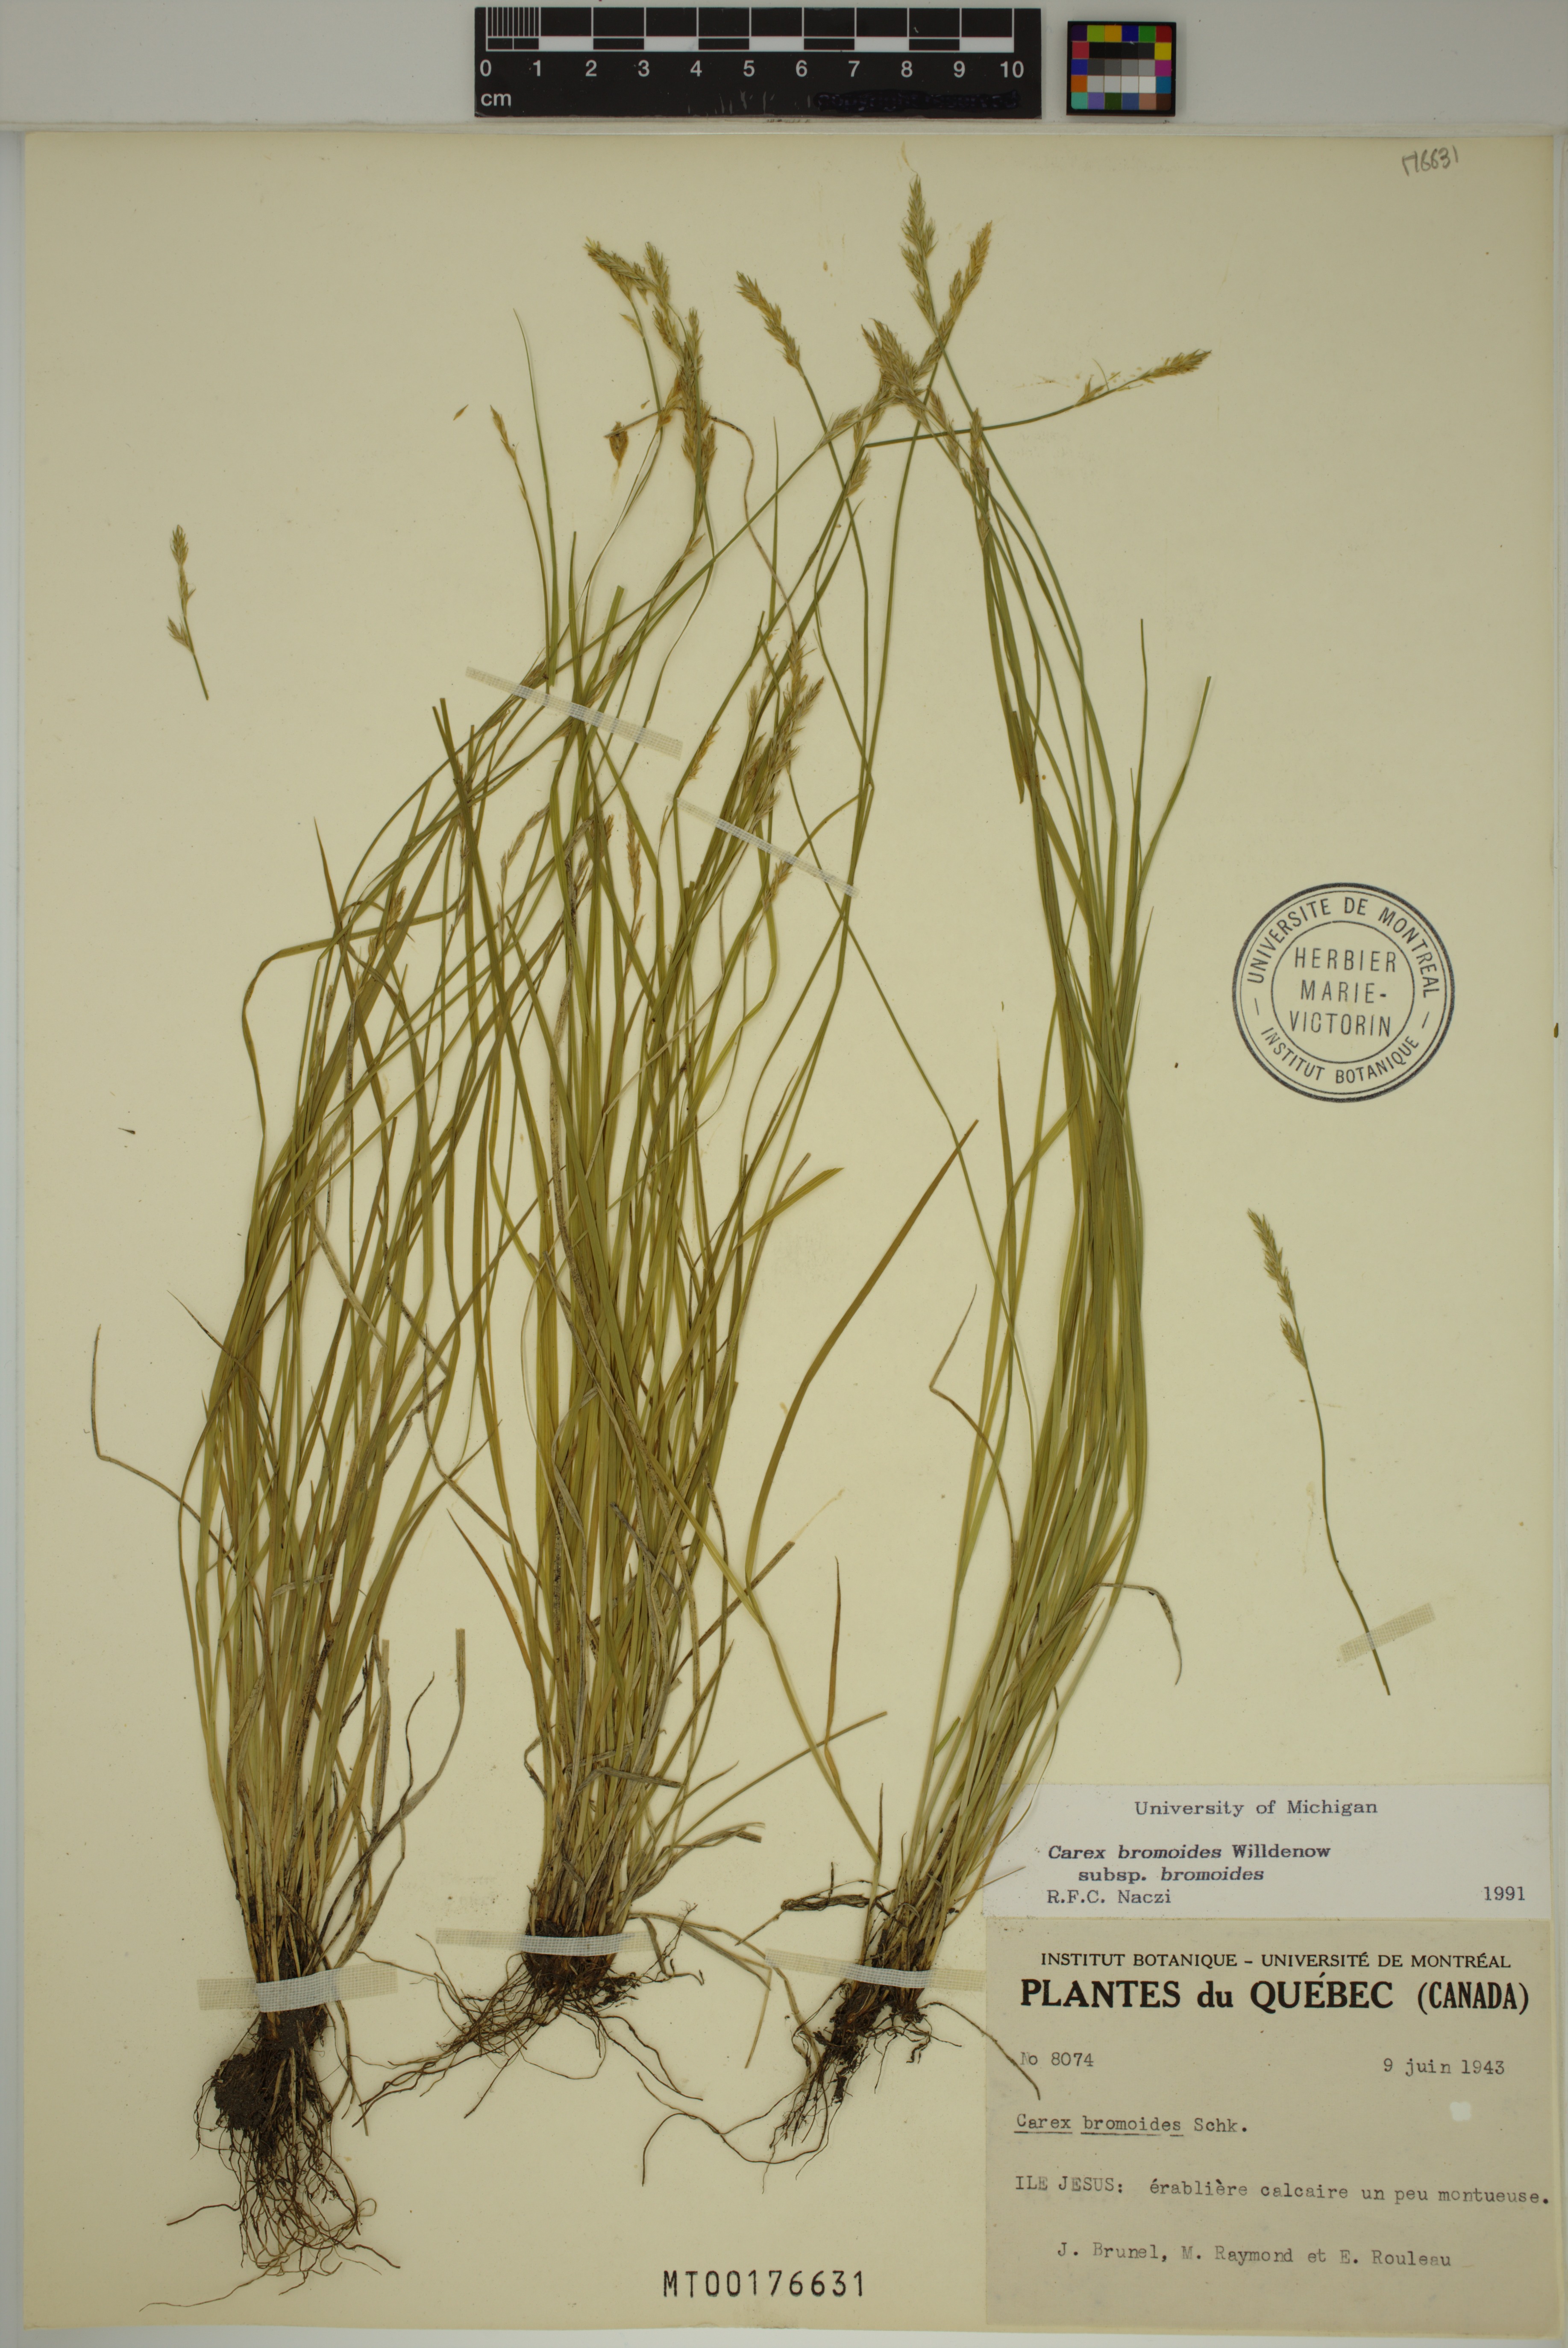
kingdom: Plantae
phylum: Tracheophyta
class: Liliopsida
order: Poales
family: Cyperaceae
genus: Carex
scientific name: Carex bromoides
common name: Brome hummock sedge
